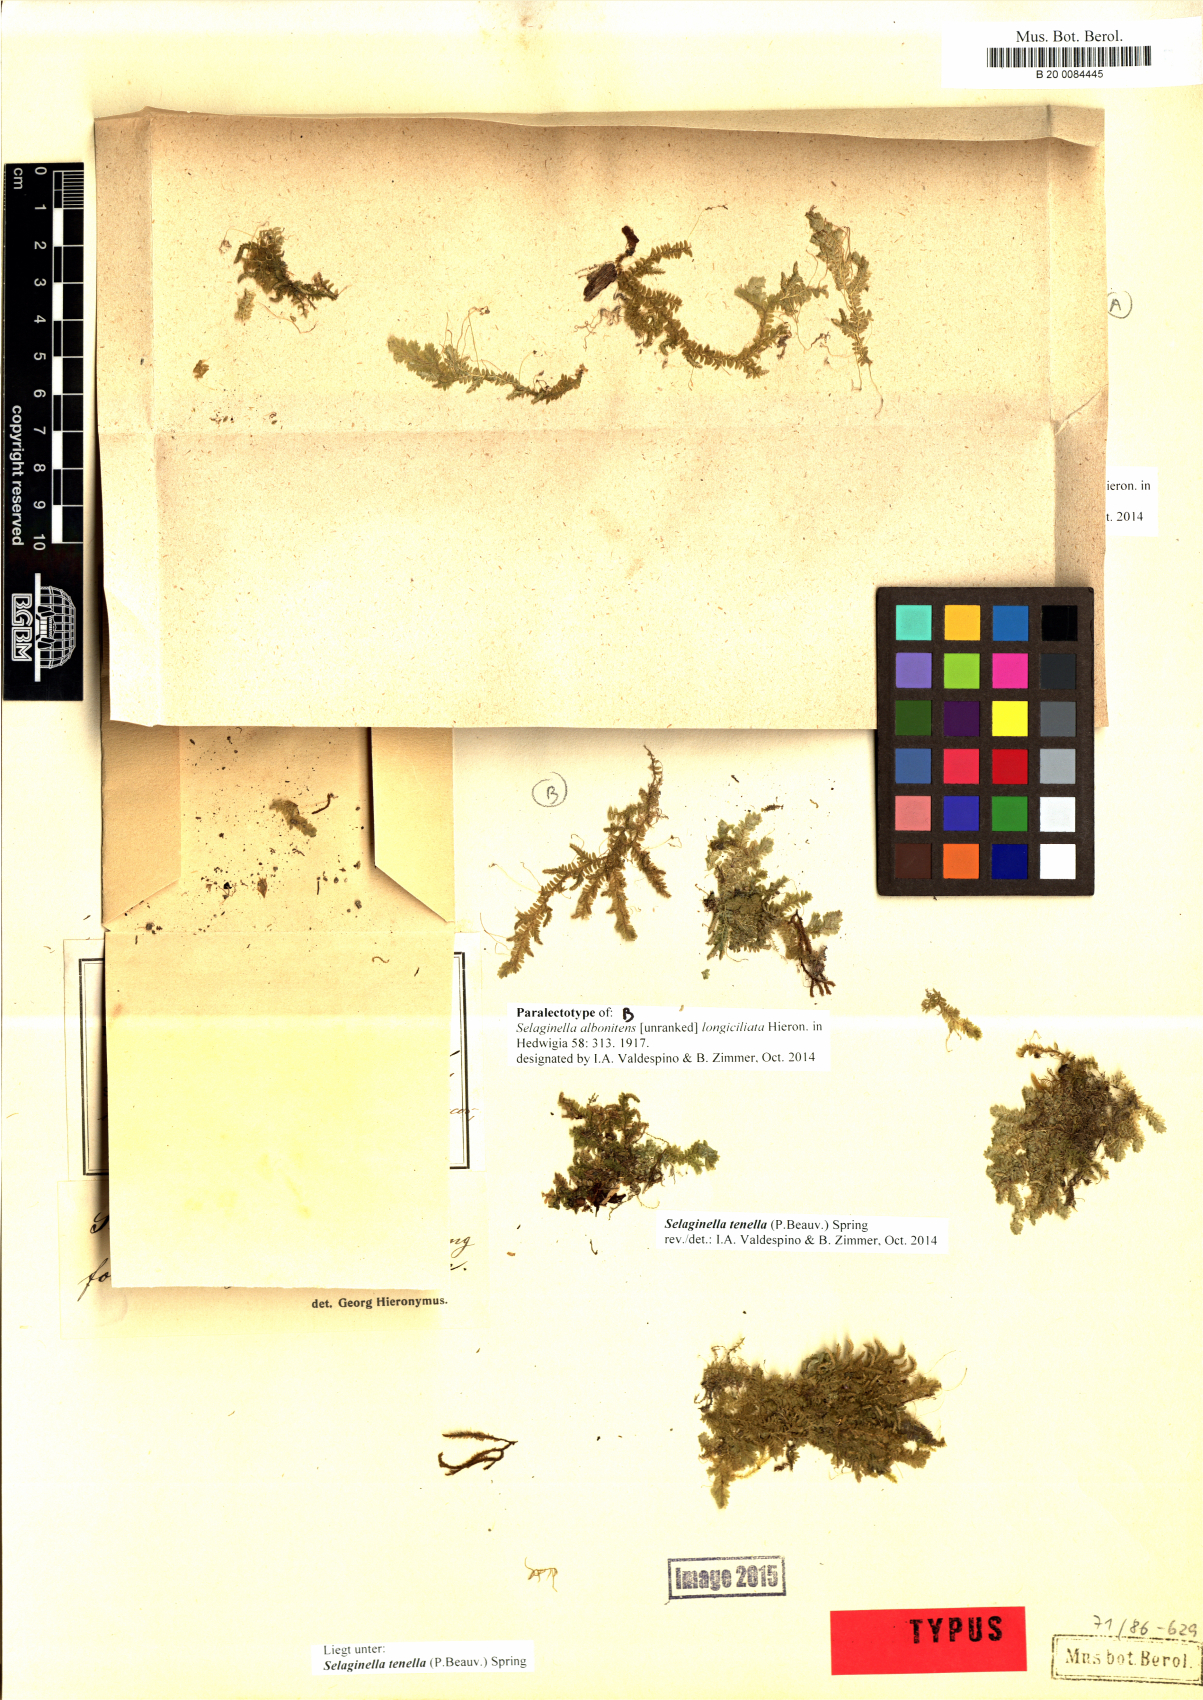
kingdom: Plantae
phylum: Tracheophyta
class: Lycopodiopsida
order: Selaginellales
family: Selaginellaceae
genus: Selaginella
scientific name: Selaginella tenella
